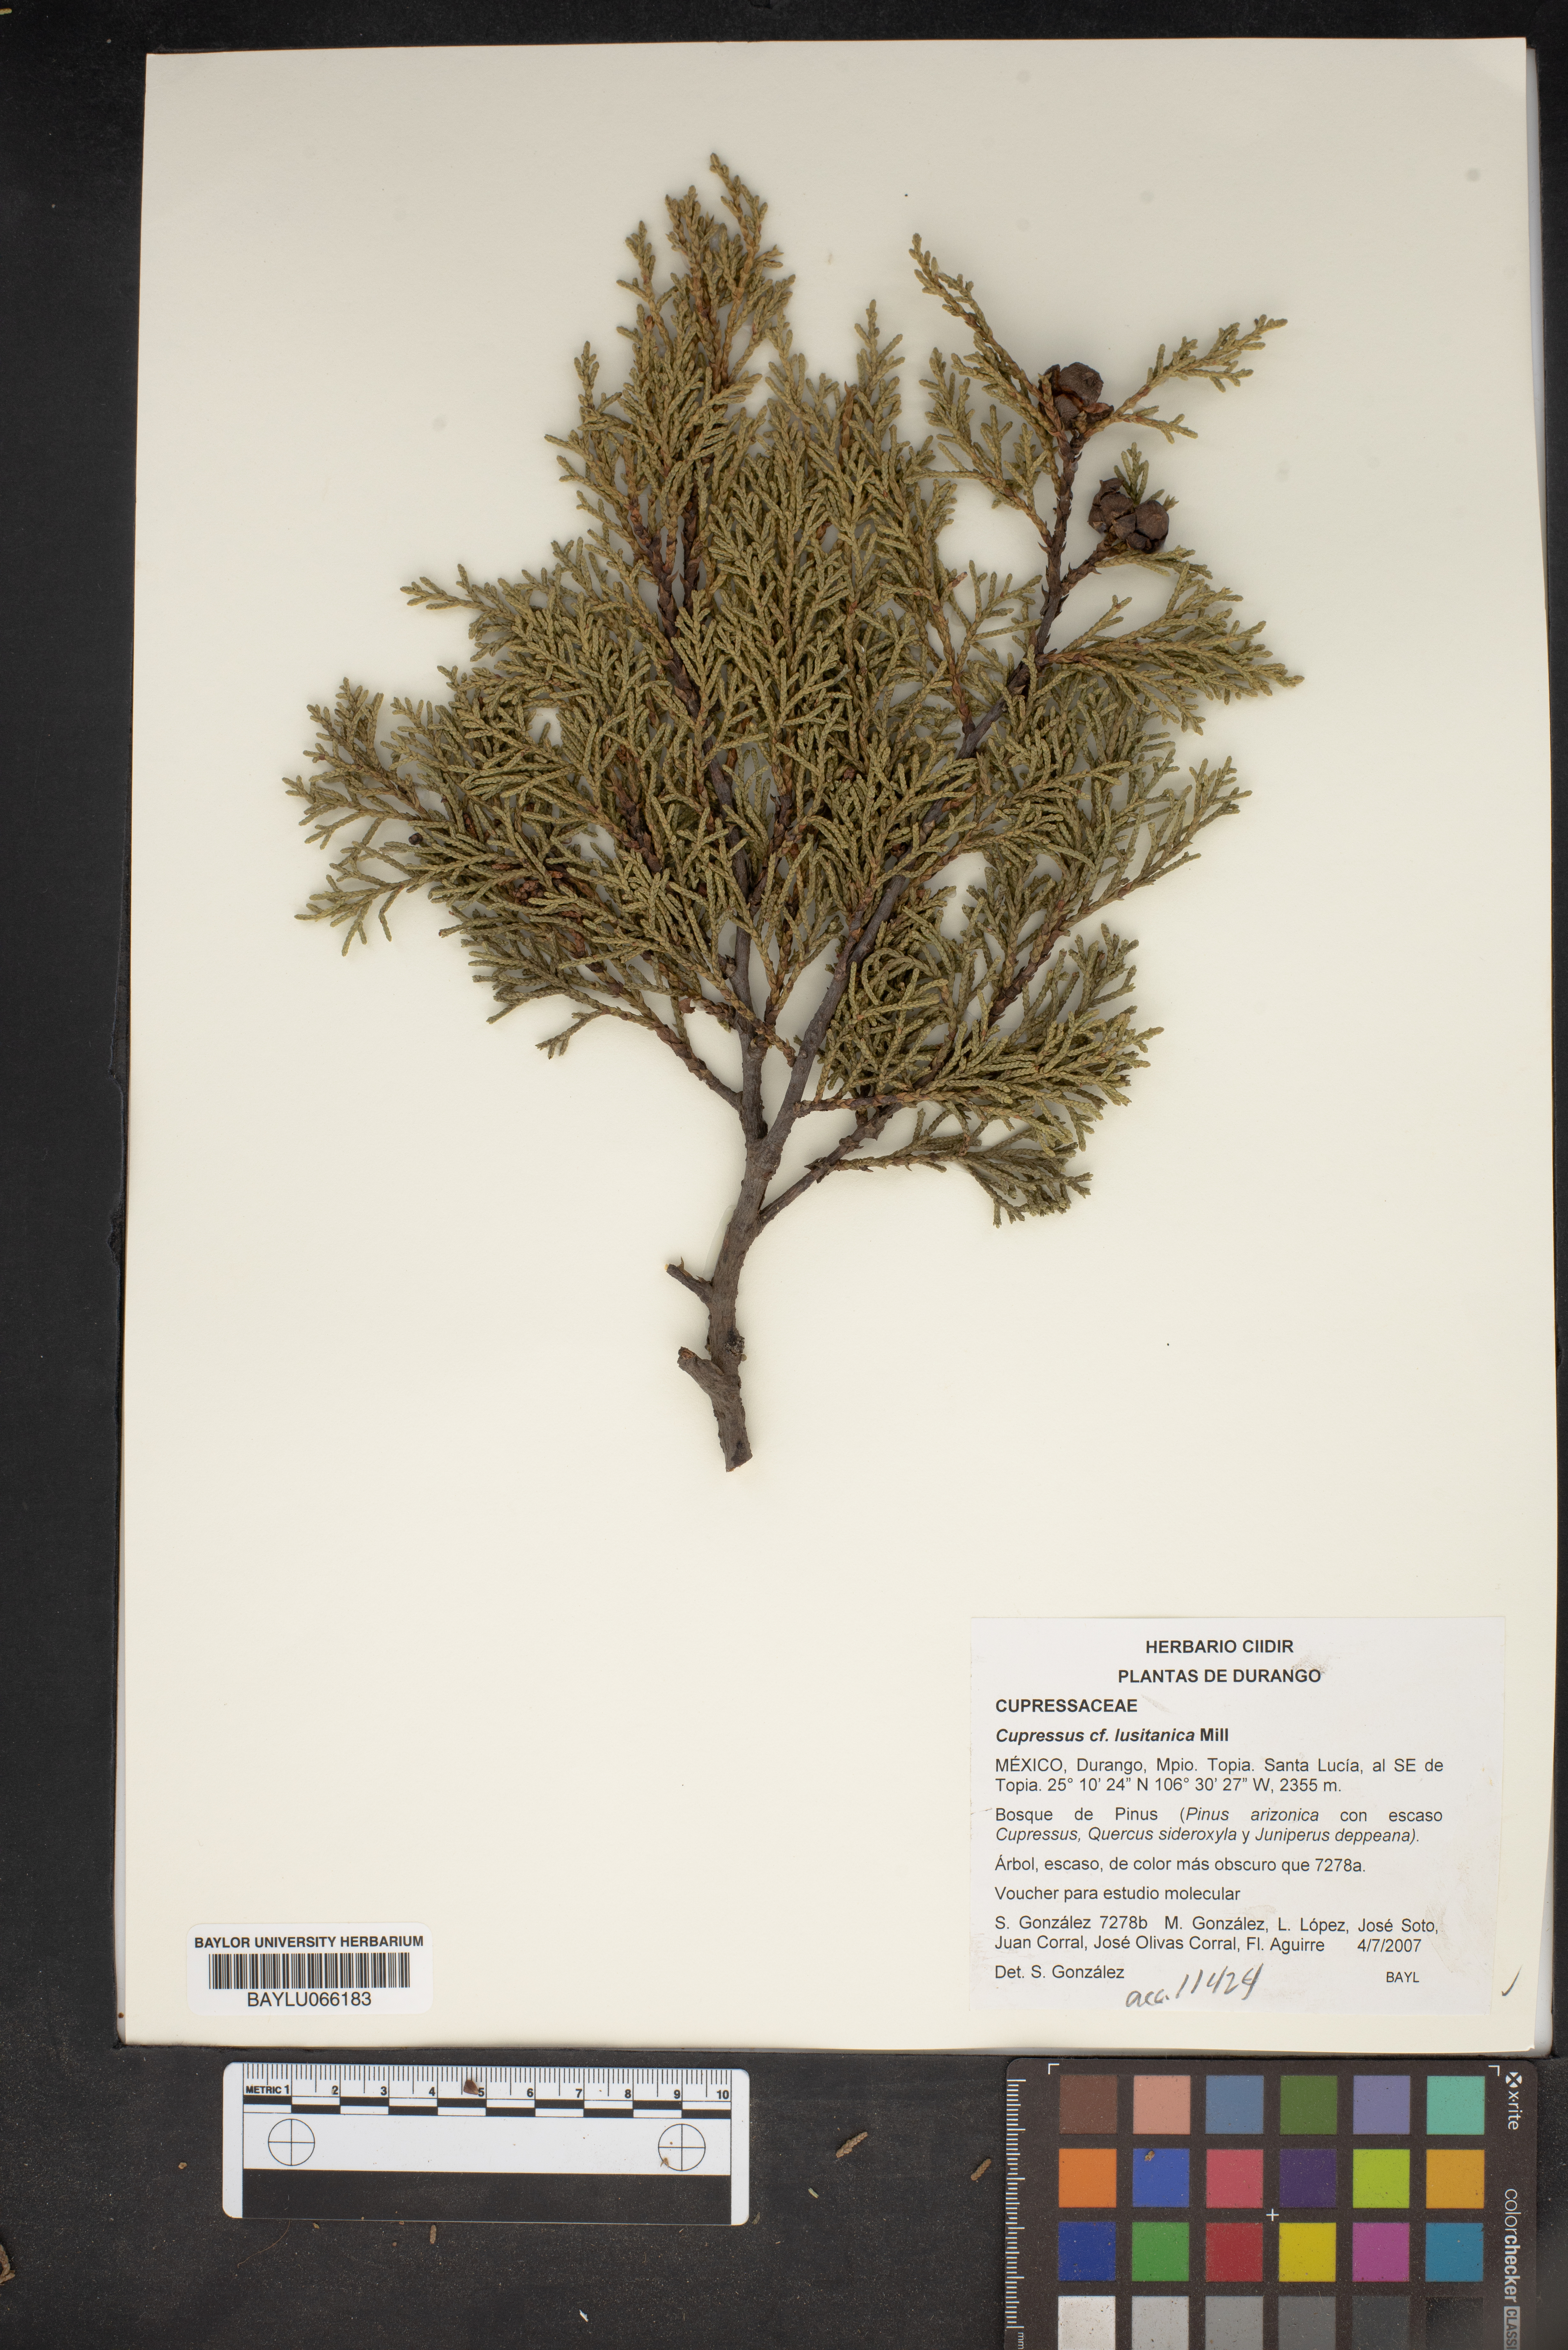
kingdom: Plantae
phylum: Tracheophyta
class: Pinopsida
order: Pinales
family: Cupressaceae
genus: Cupressus
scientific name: Cupressus lusitanica
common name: Mexican cypress
